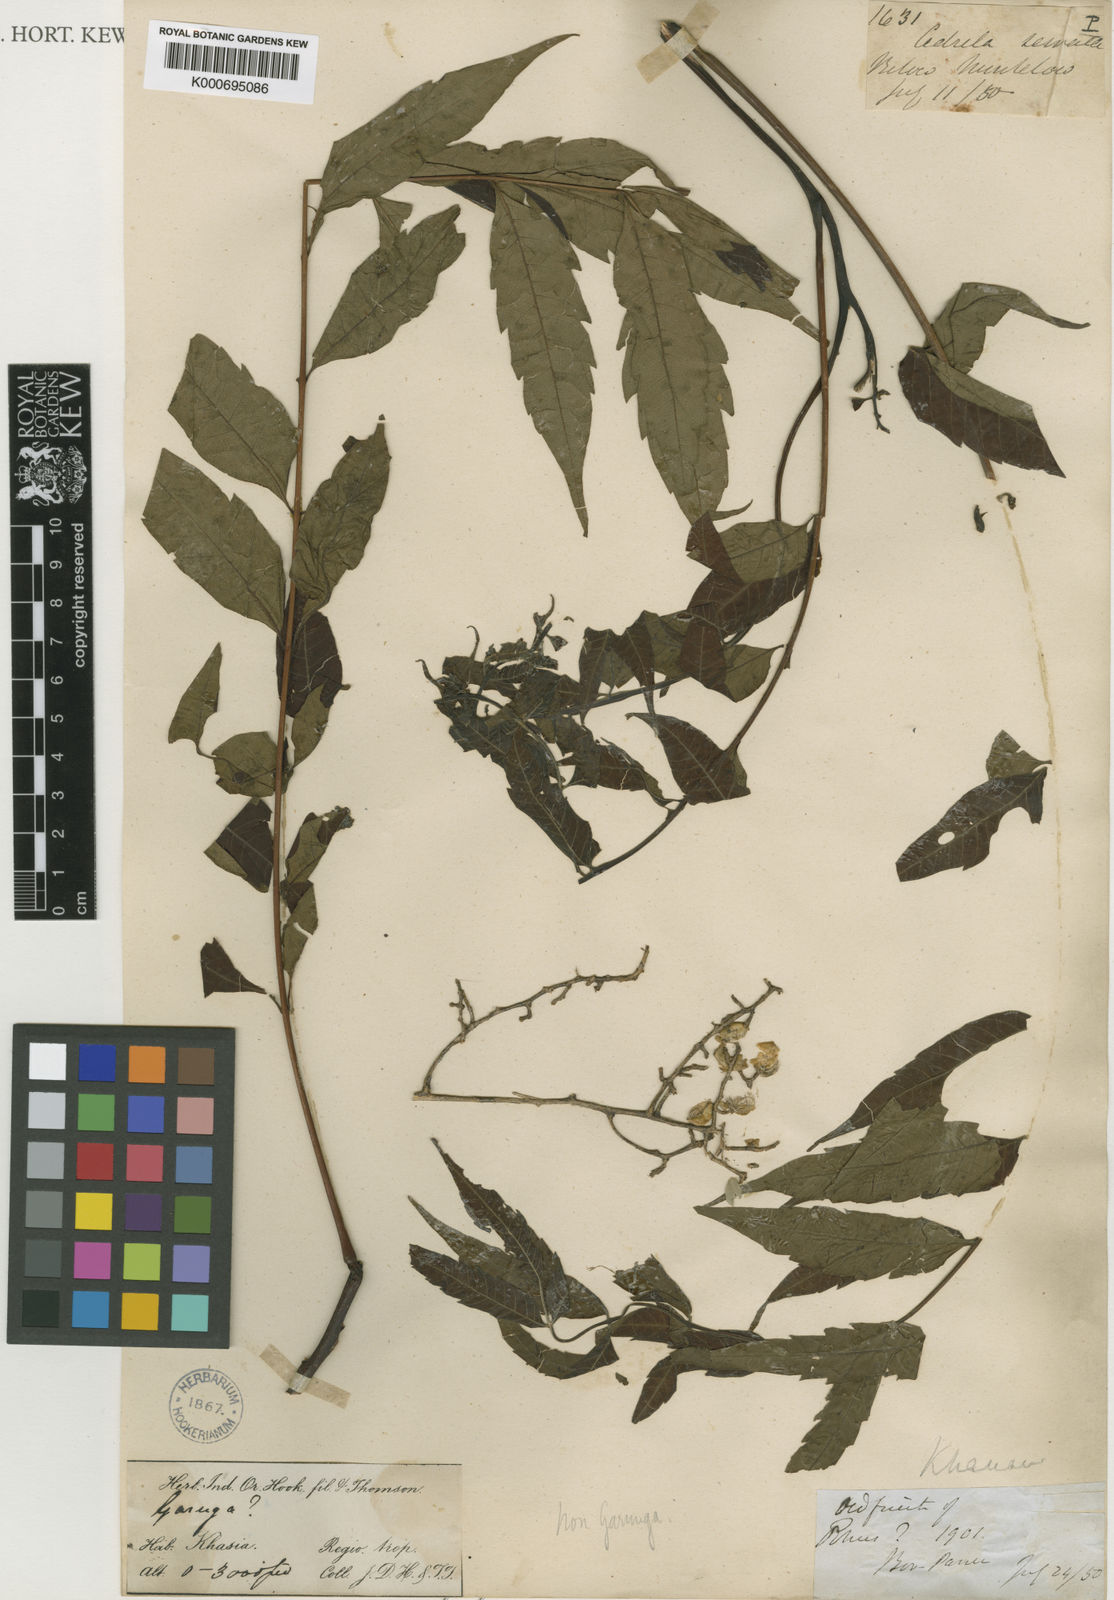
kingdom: Plantae
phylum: Tracheophyta
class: Magnoliopsida
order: Sapindales
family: Anacardiaceae
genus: Toxicodendron
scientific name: Toxicodendron khasianum
